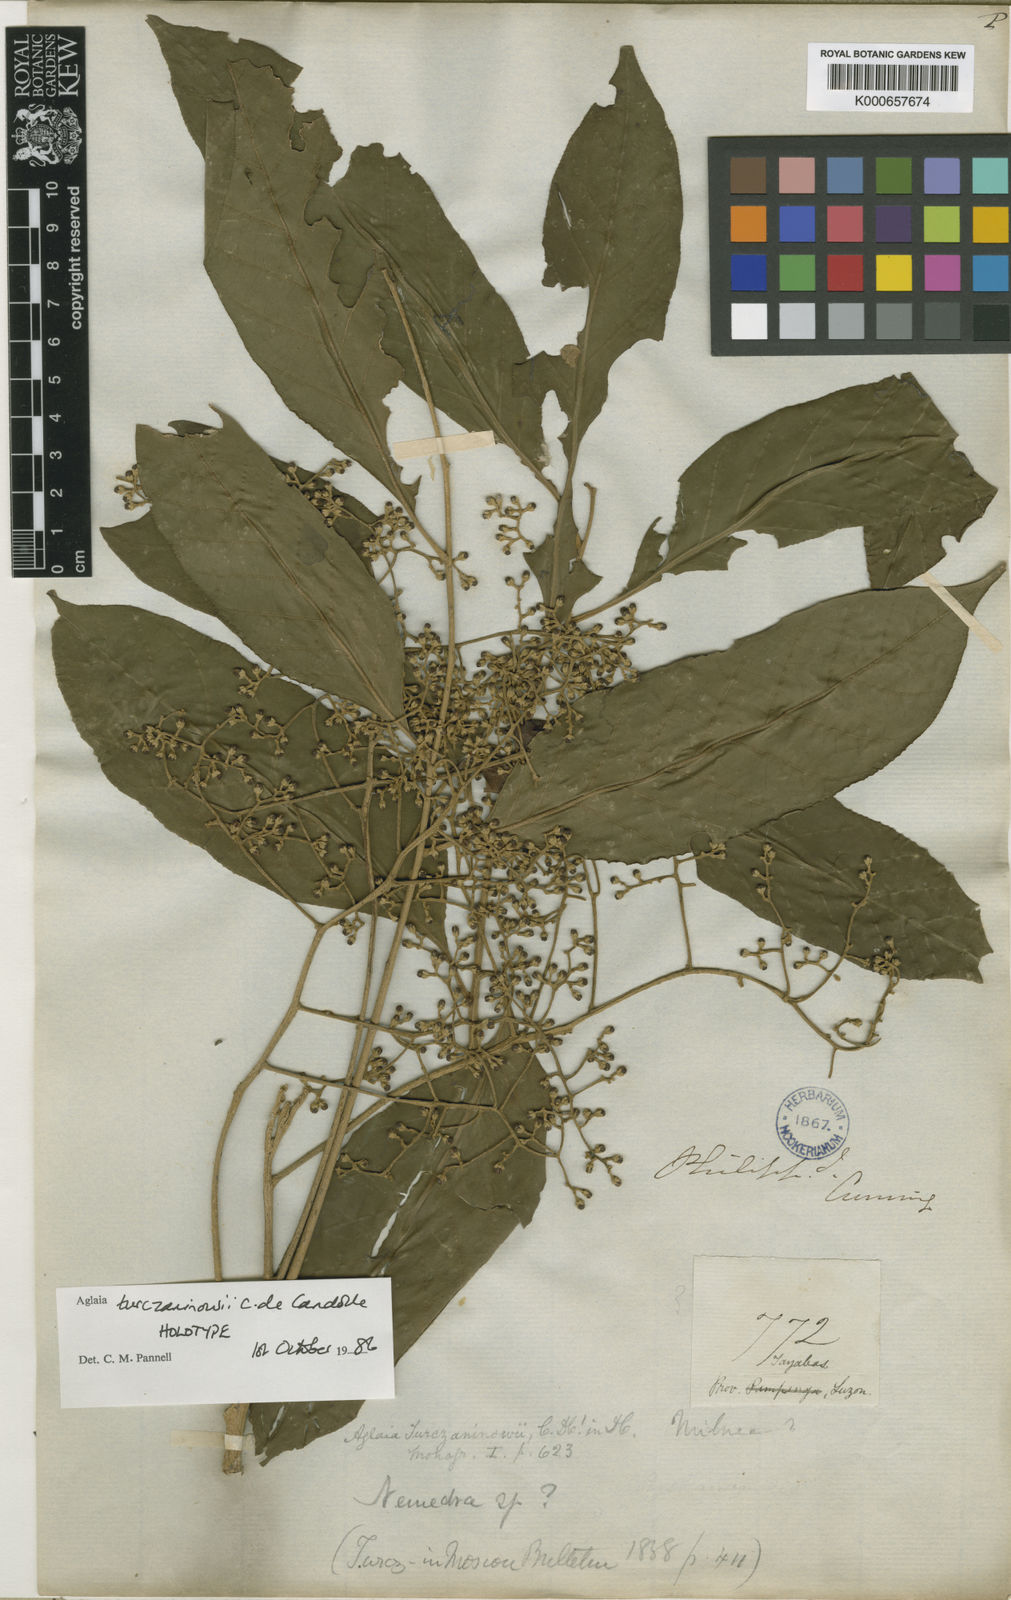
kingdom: Plantae
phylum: Tracheophyta
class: Magnoliopsida
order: Sapindales
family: Meliaceae
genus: Aglaia
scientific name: Aglaia lawii
